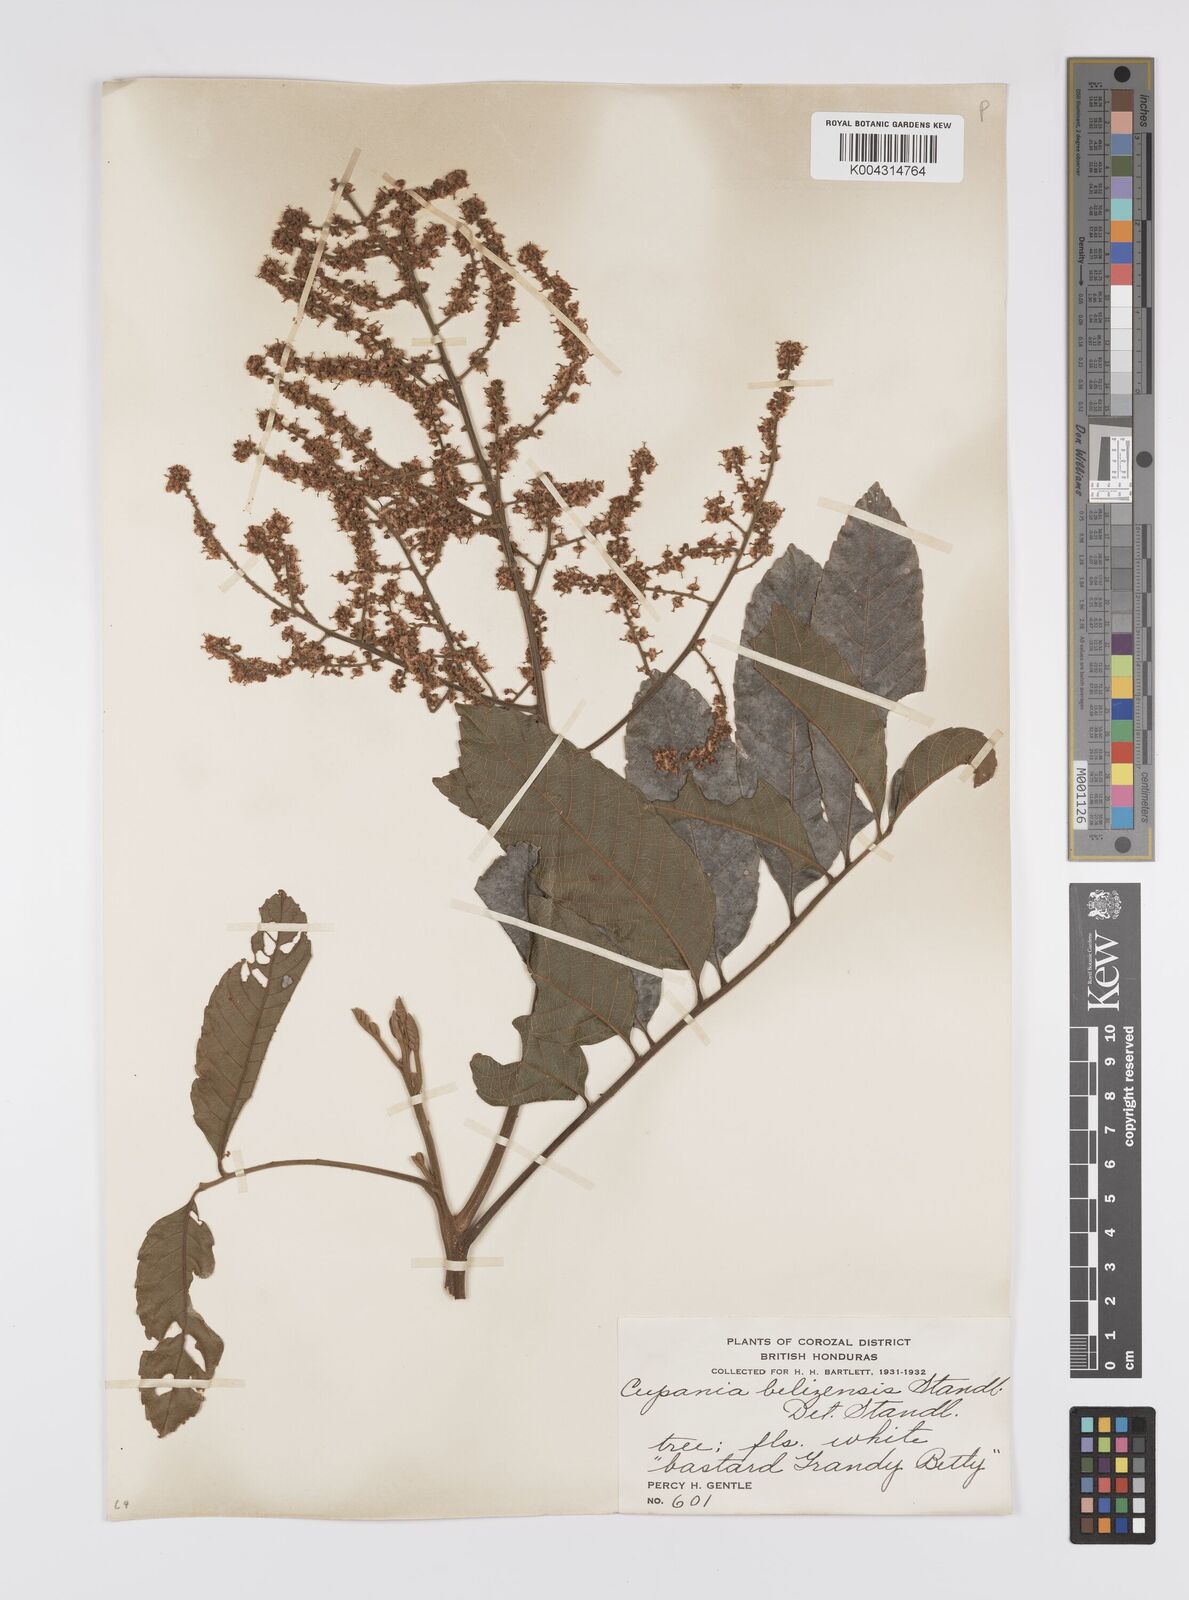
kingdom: Plantae
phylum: Tracheophyta
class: Magnoliopsida
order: Sapindales
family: Sapindaceae
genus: Cupania
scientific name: Cupania belizensis
